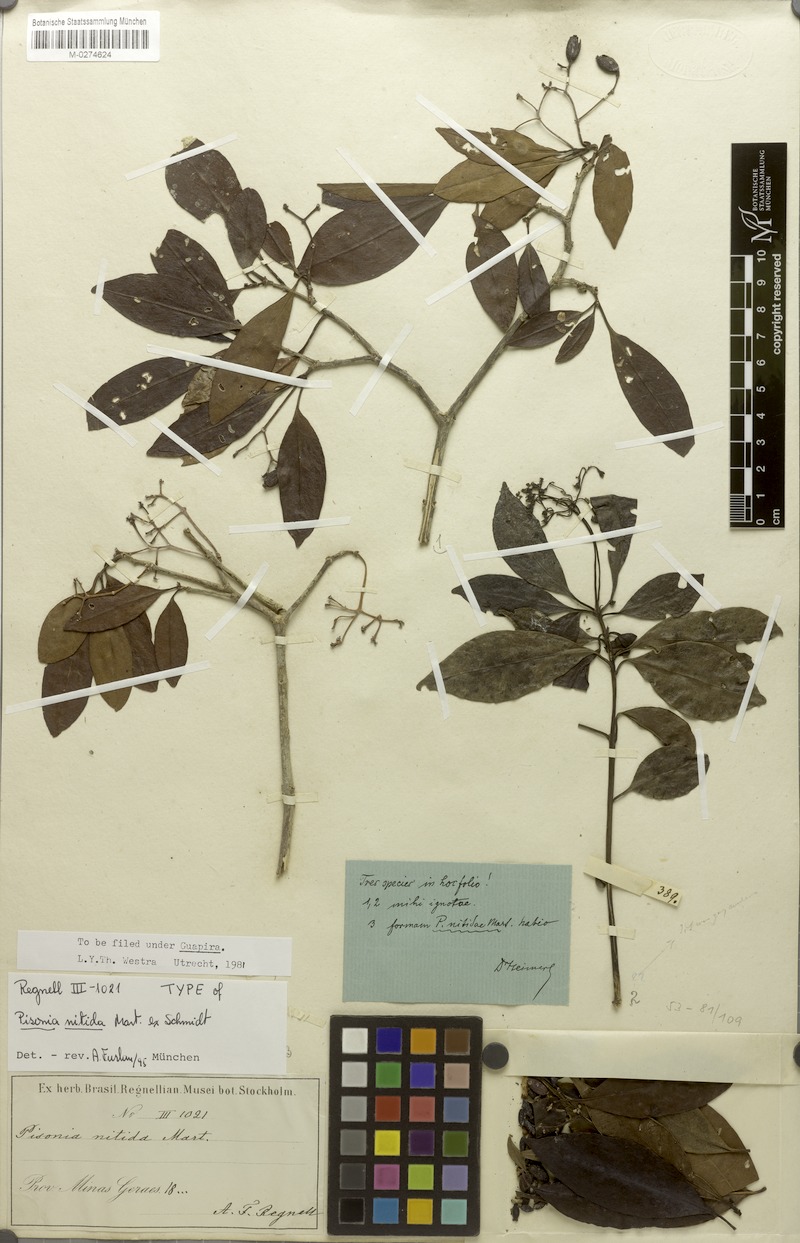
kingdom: Plantae
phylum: Tracheophyta
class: Magnoliopsida
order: Caryophyllales
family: Nyctaginaceae
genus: Guapira
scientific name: Guapira opposita
